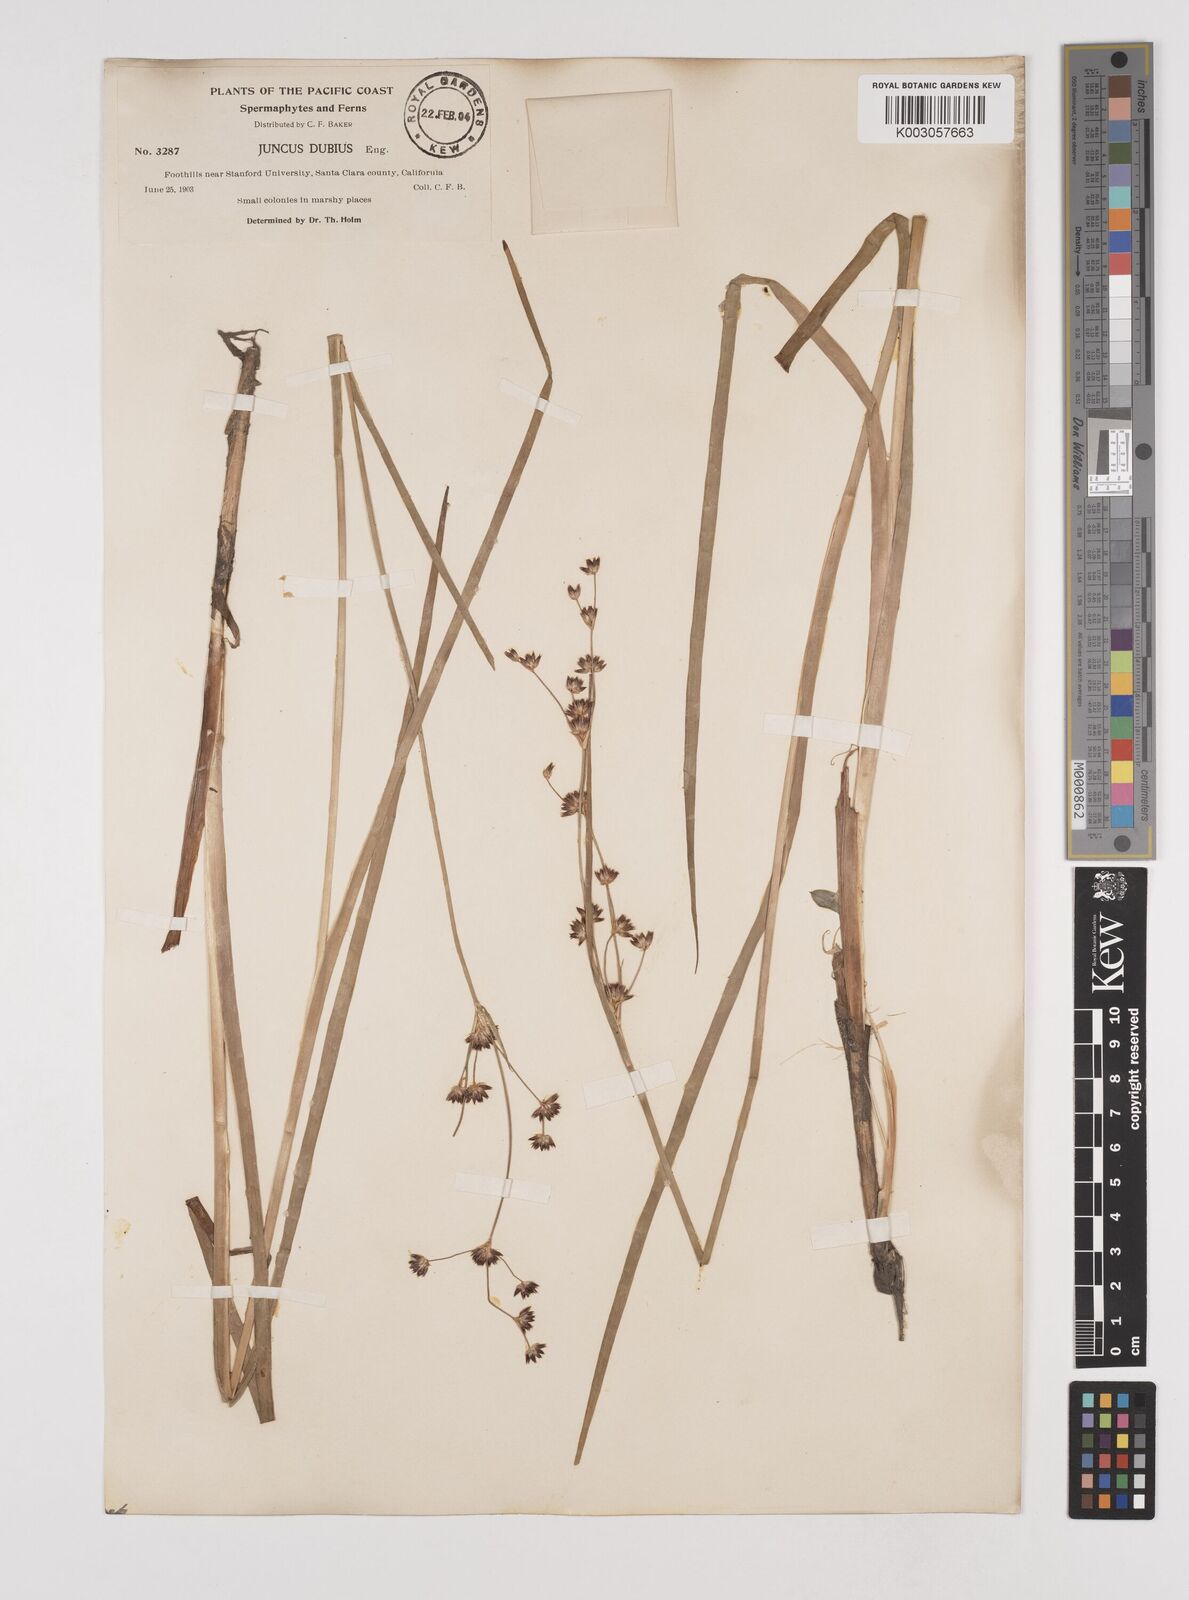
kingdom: Plantae
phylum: Tracheophyta
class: Liliopsida
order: Poales
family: Juncaceae
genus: Juncus
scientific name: Juncus dubius
